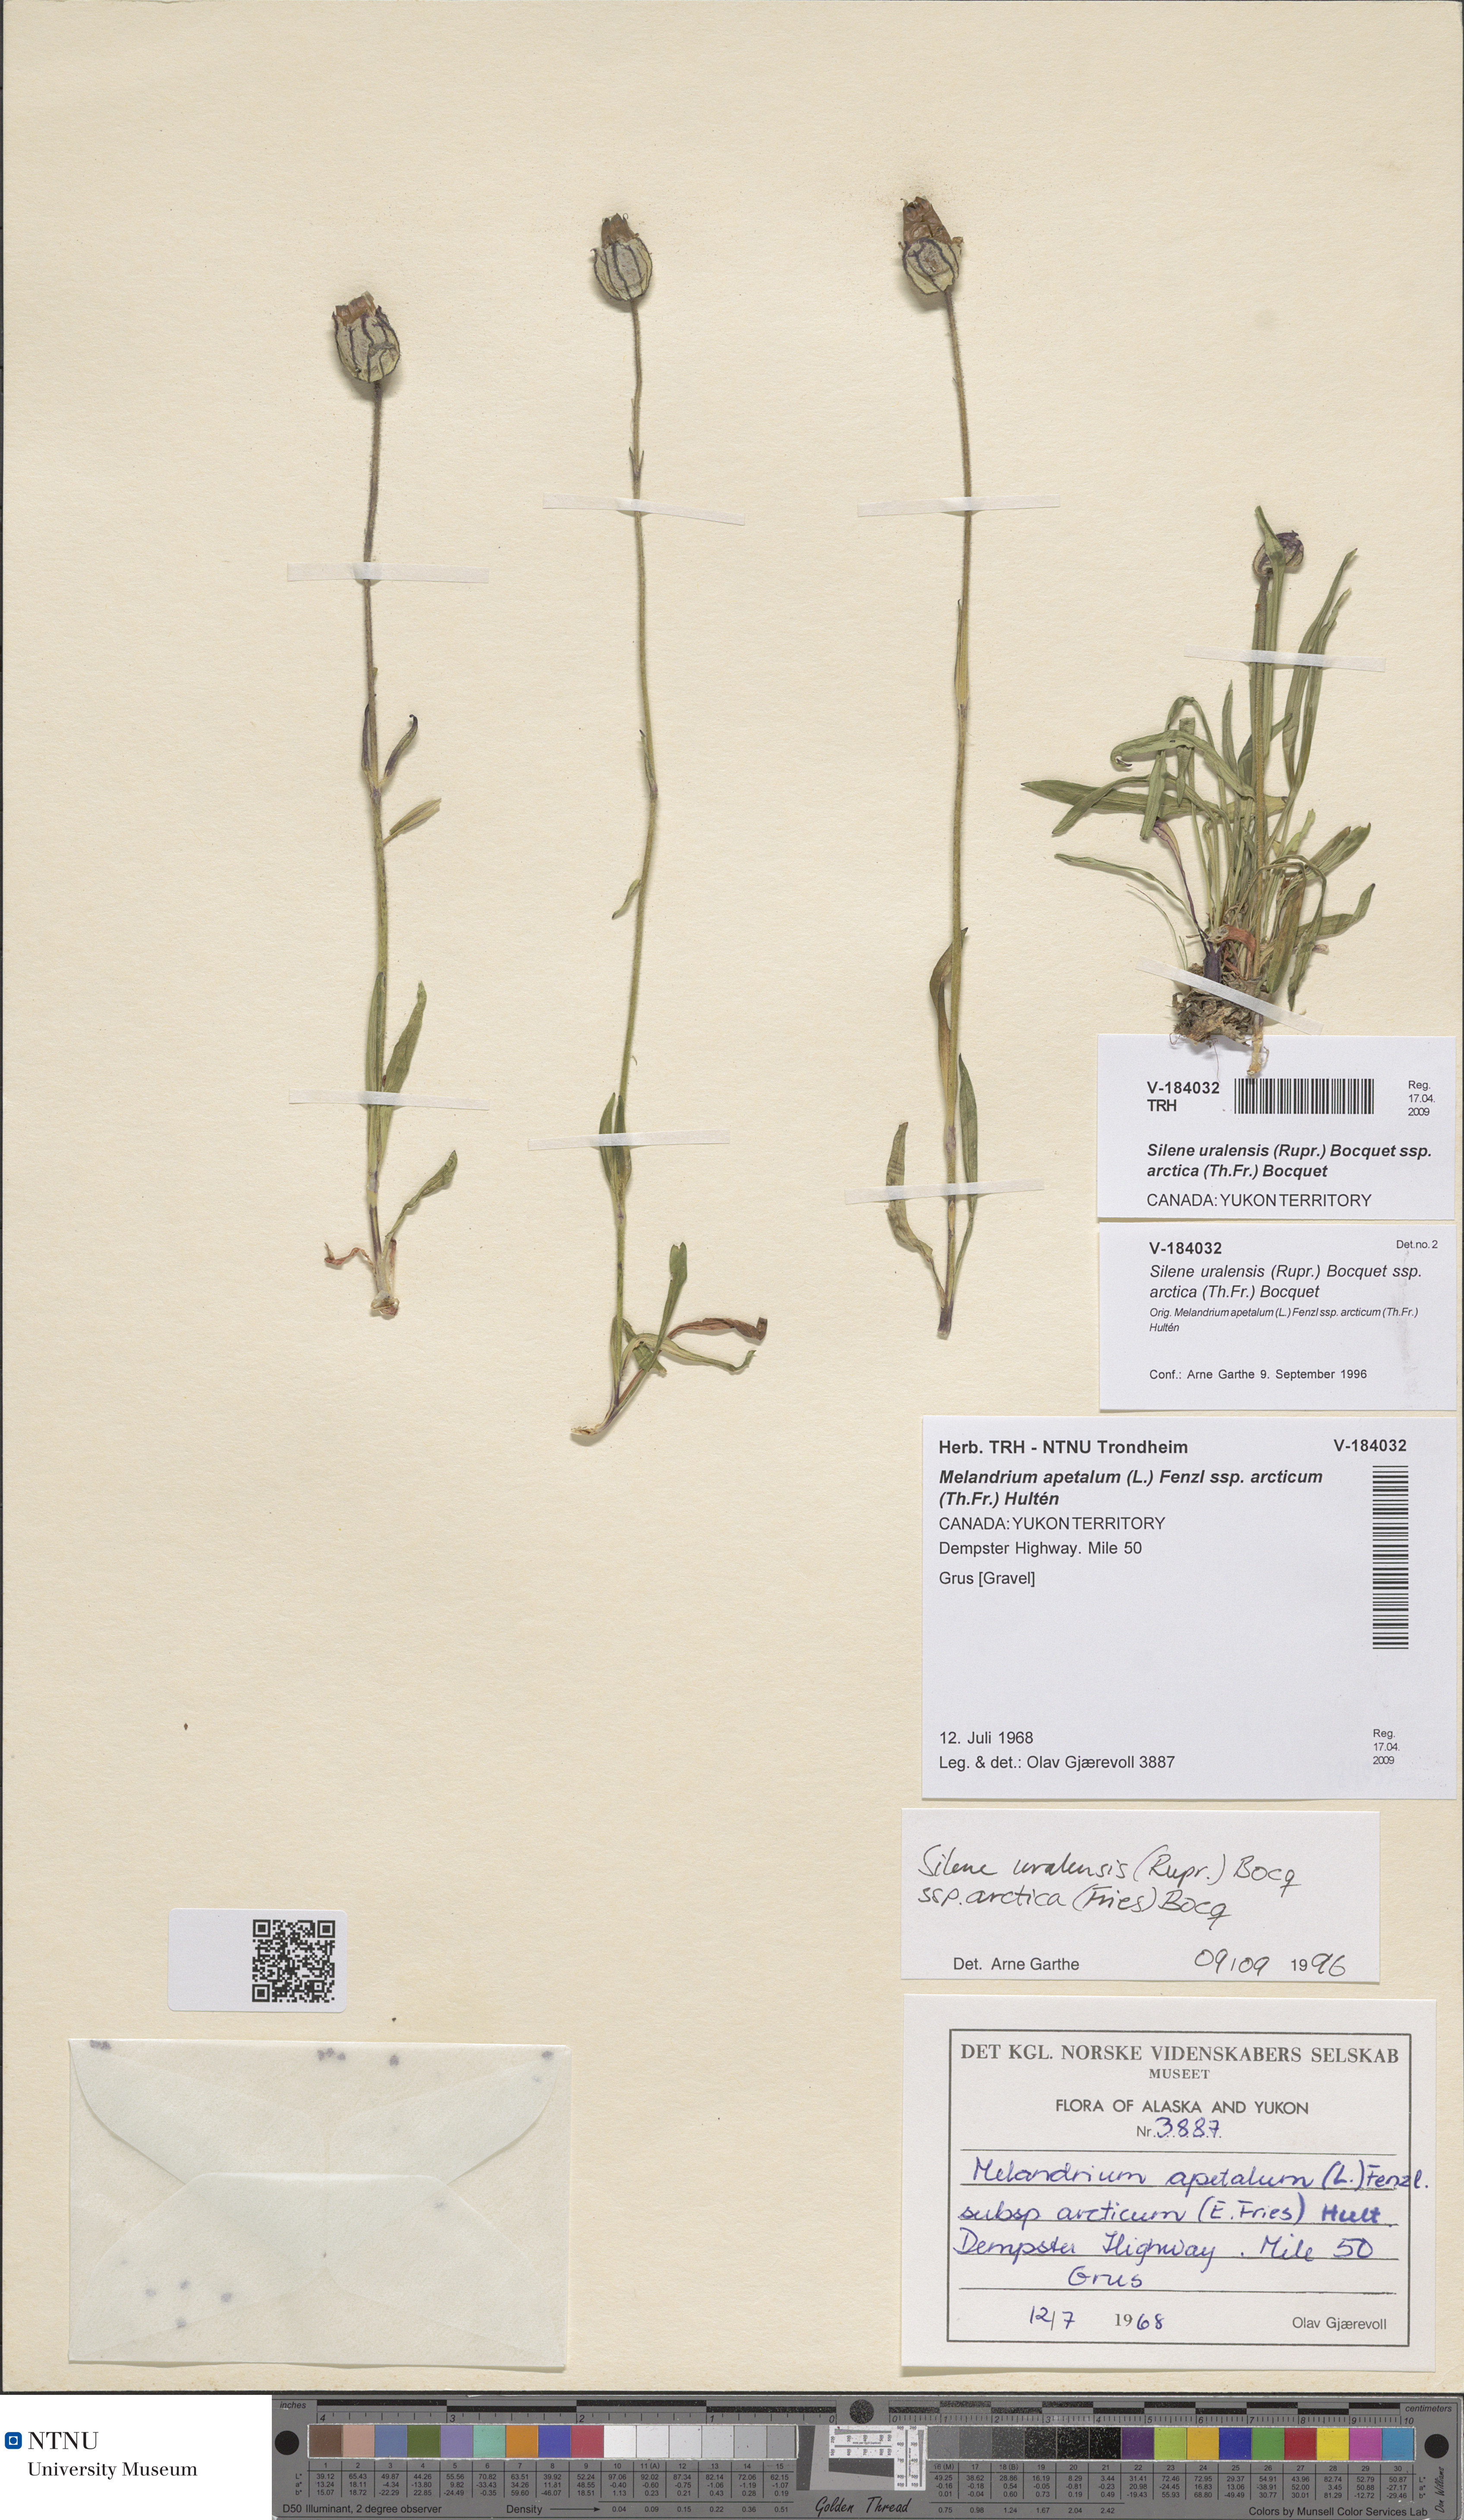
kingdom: Plantae
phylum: Tracheophyta
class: Magnoliopsida
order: Caryophyllales
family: Caryophyllaceae
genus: Silene
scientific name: Silene uralensis
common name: Nodding campion
